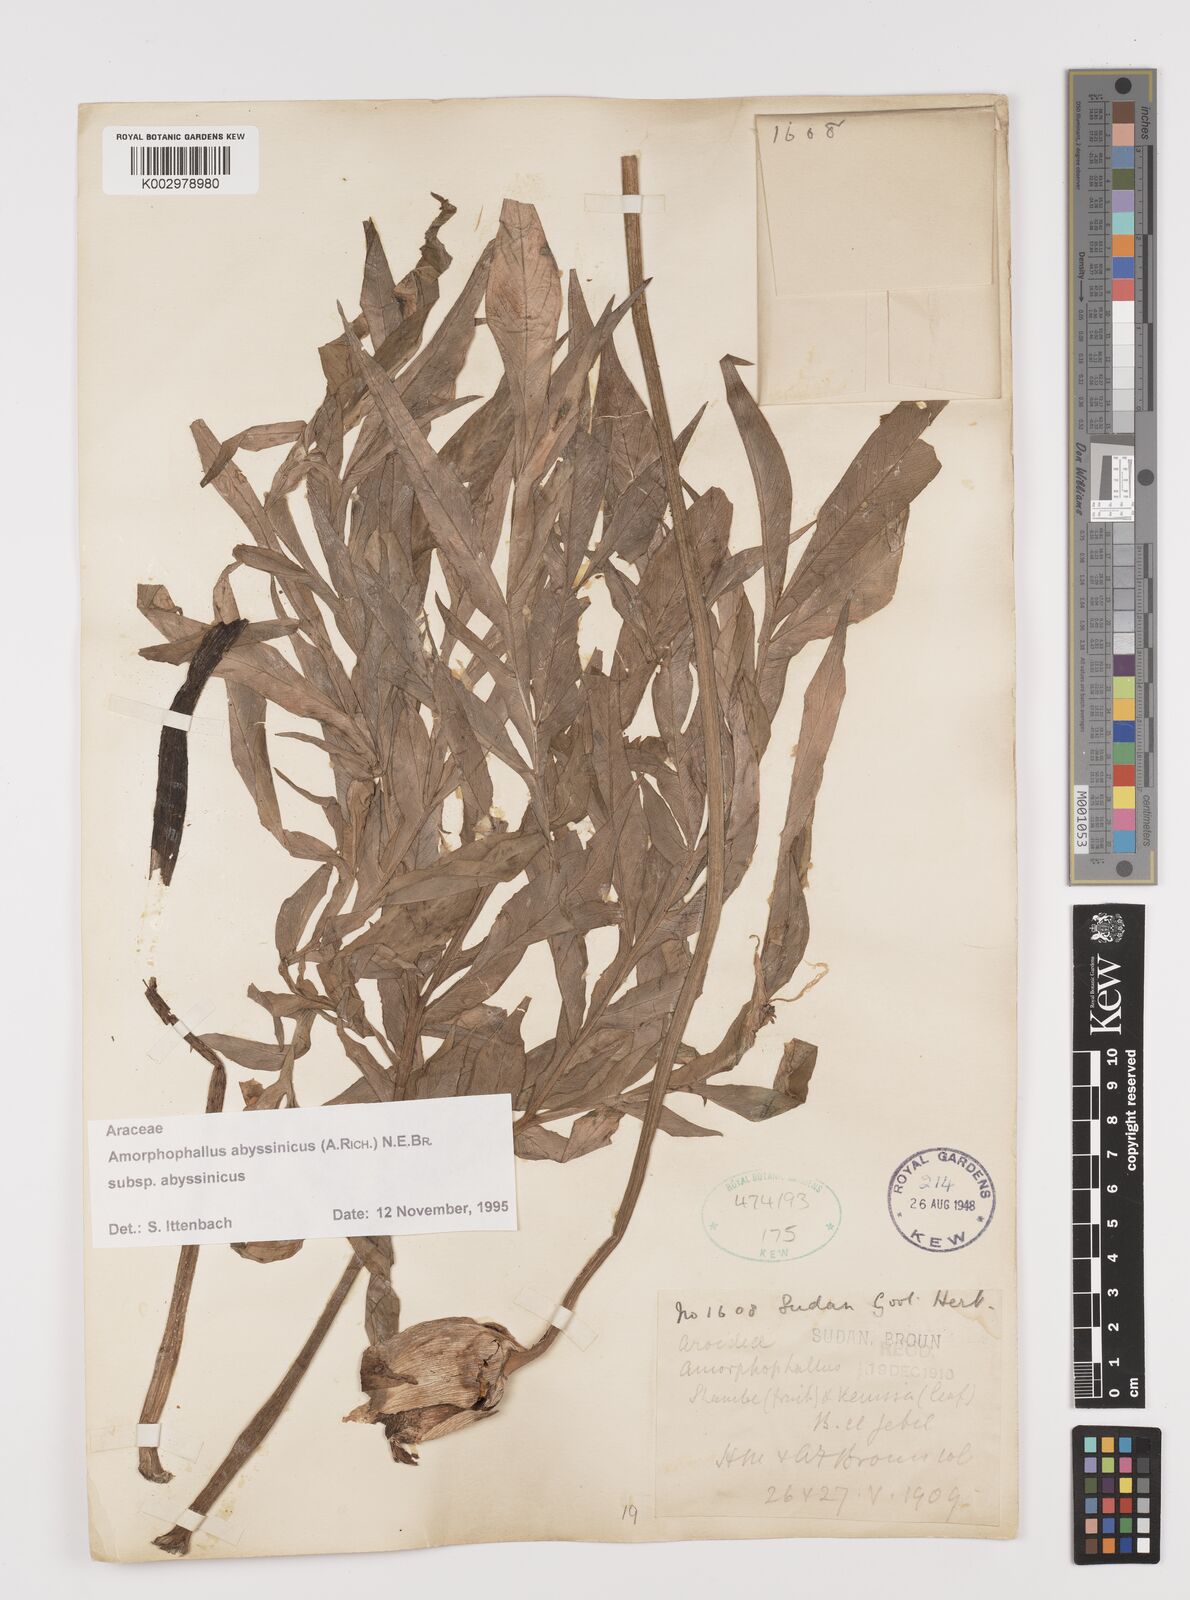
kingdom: Plantae
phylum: Tracheophyta
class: Liliopsida
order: Alismatales
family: Araceae
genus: Amorphophallus
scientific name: Amorphophallus abyssinicus
